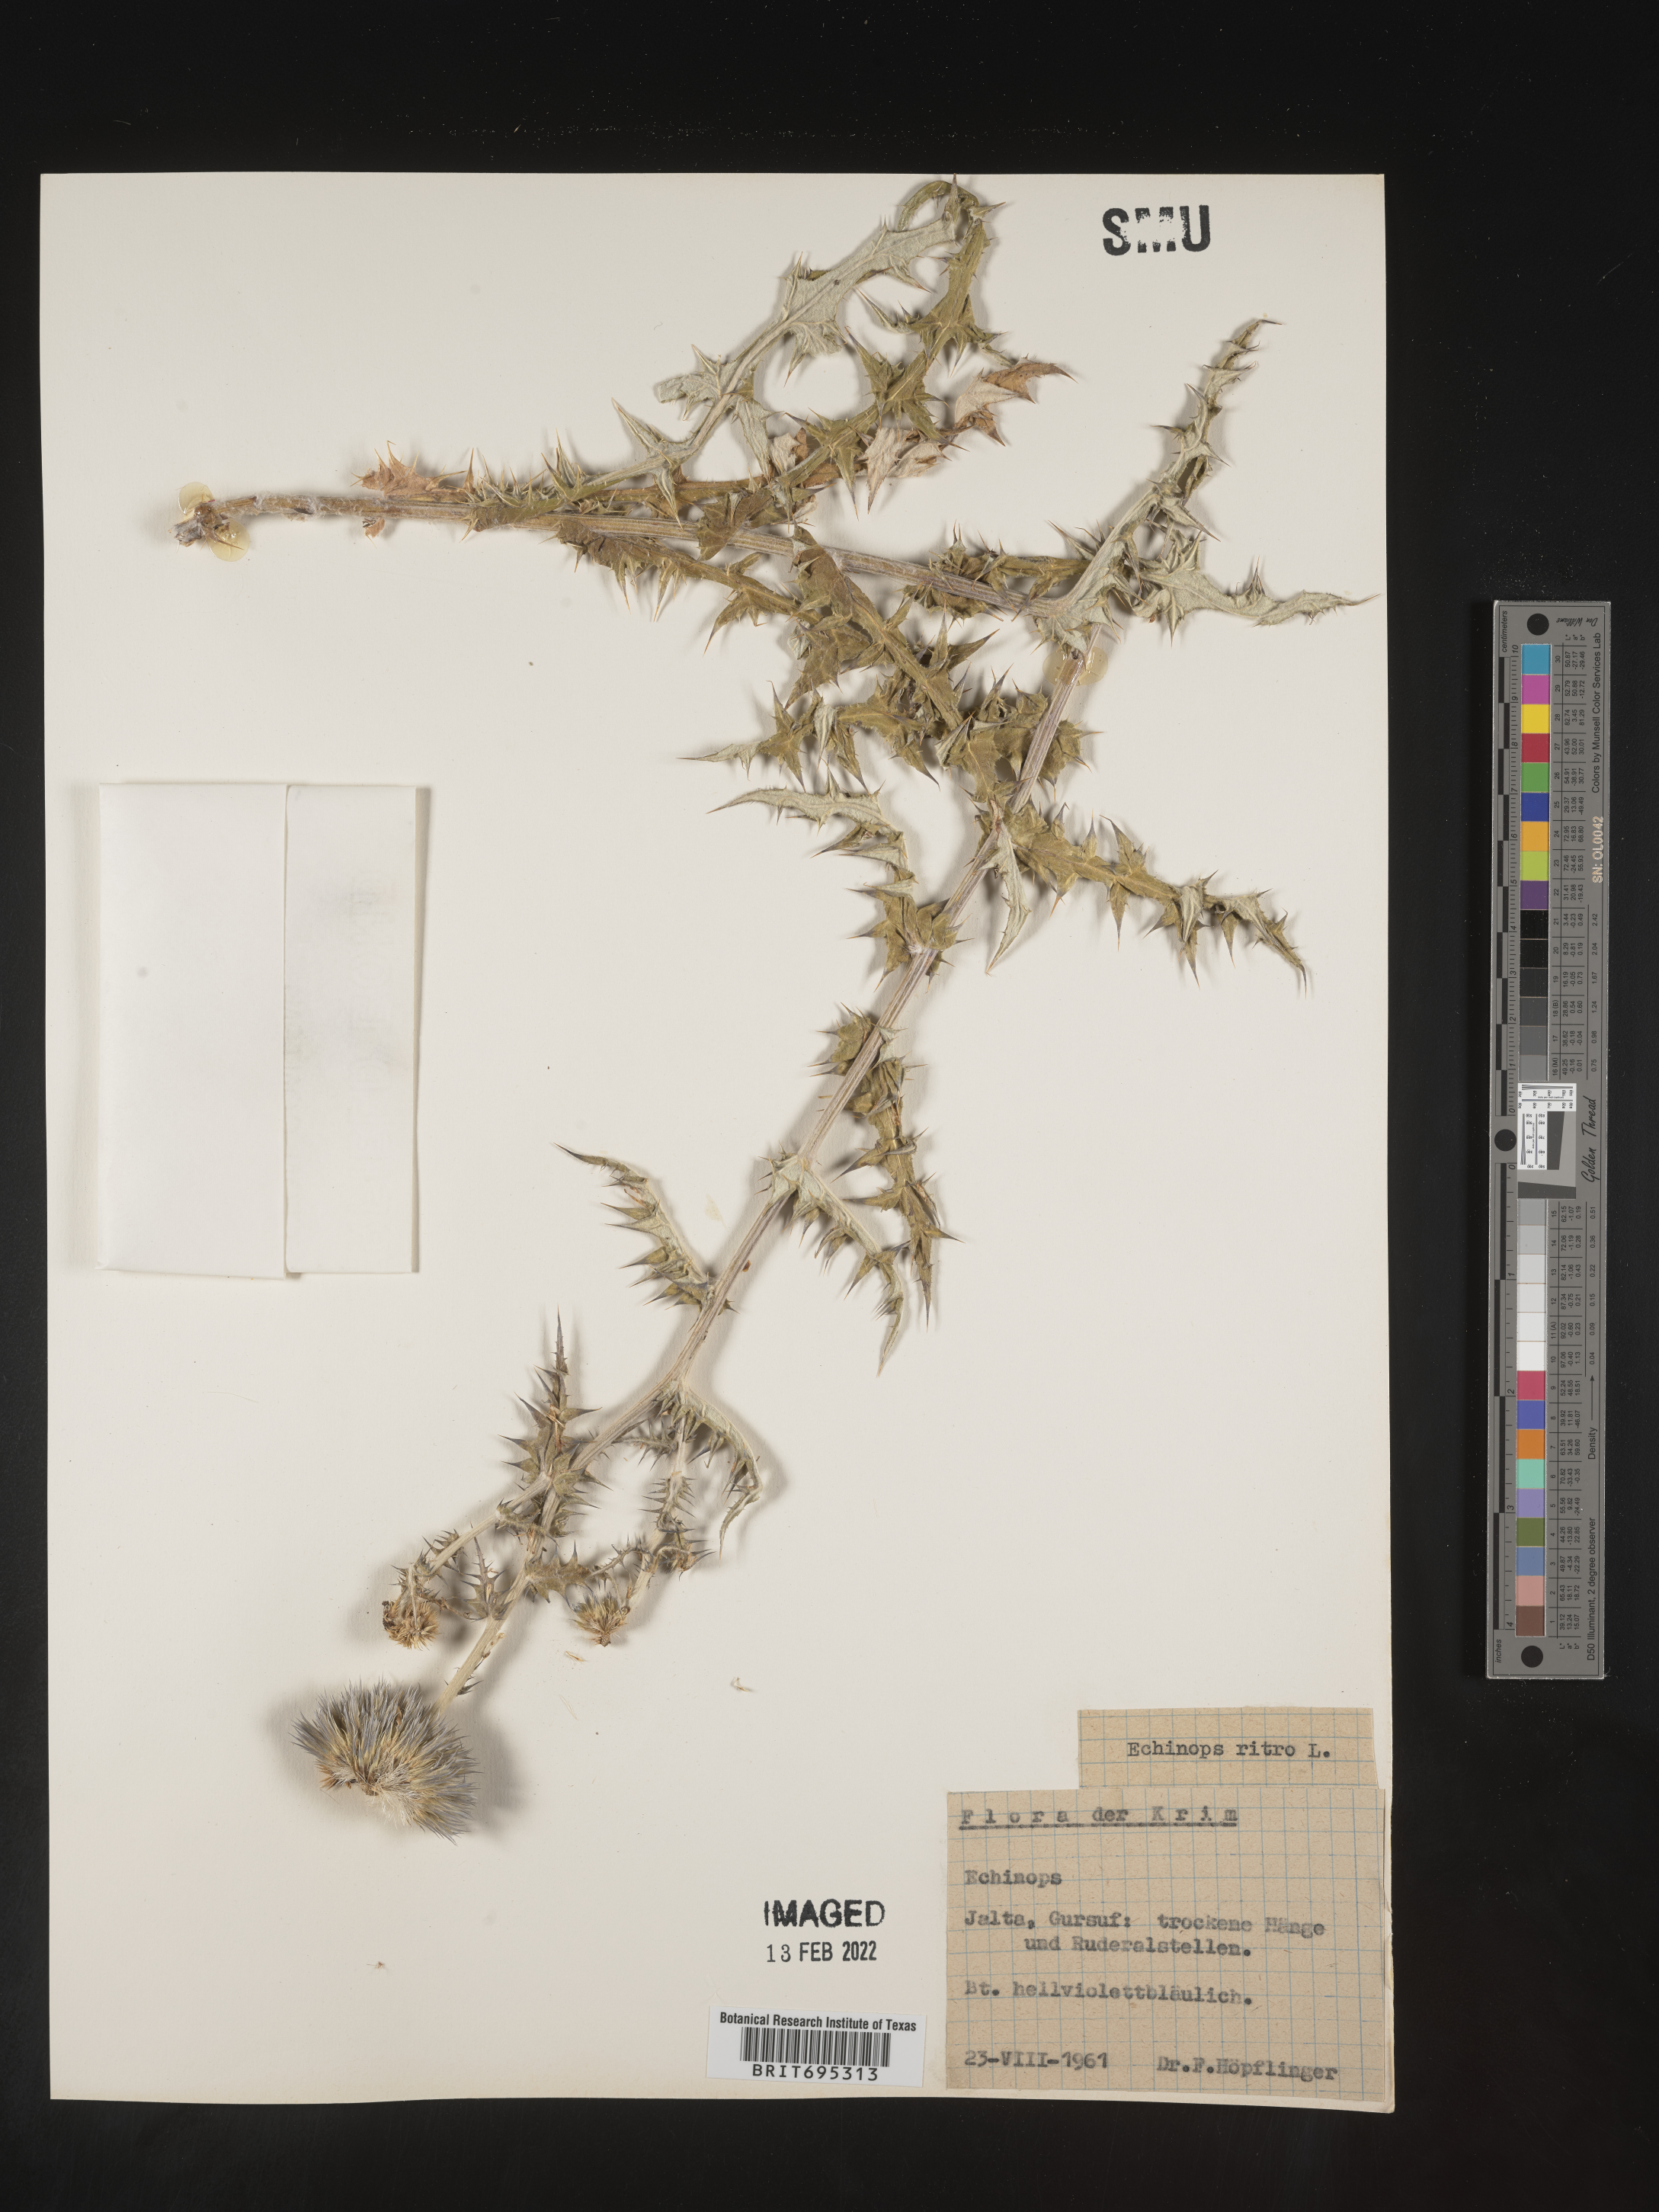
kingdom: Plantae
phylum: Tracheophyta
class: Magnoliopsida
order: Asterales
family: Asteraceae
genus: Echinops
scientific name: Echinops
